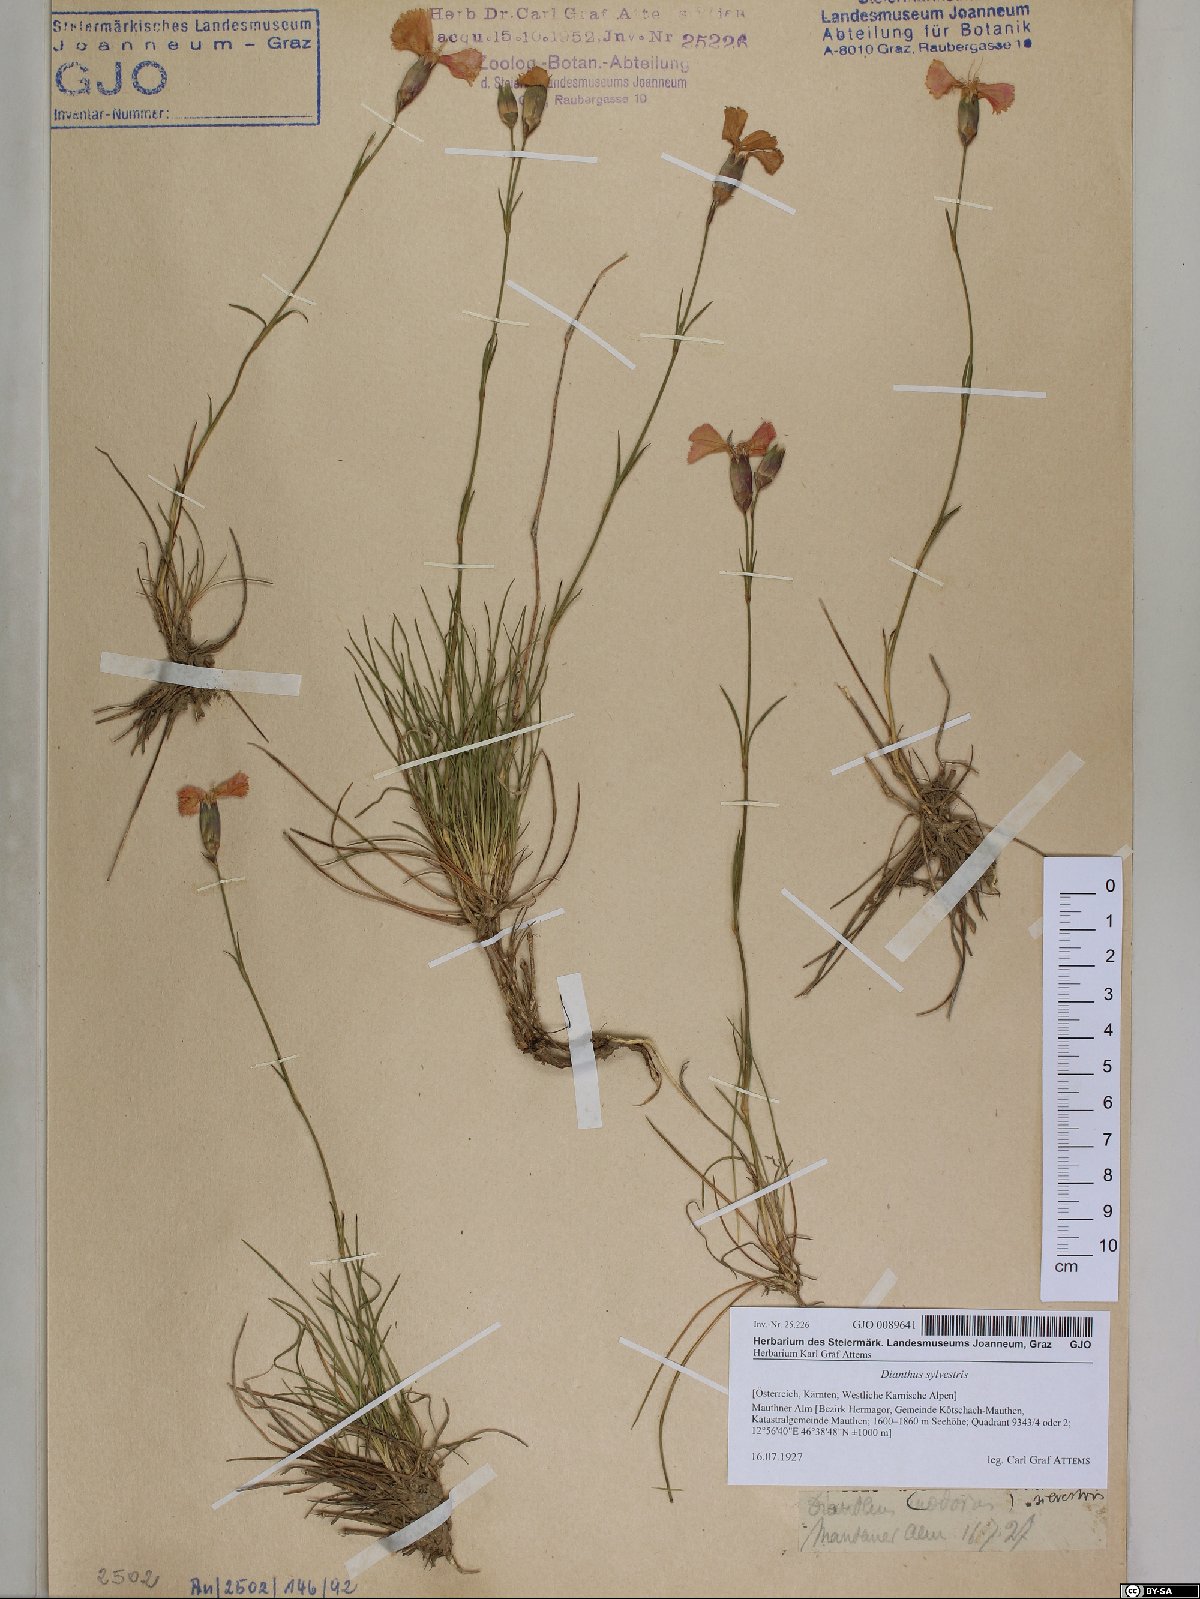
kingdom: Plantae
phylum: Tracheophyta
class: Magnoliopsida
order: Caryophyllales
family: Caryophyllaceae
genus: Dianthus
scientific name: Dianthus sylvestris
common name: Wood pink
